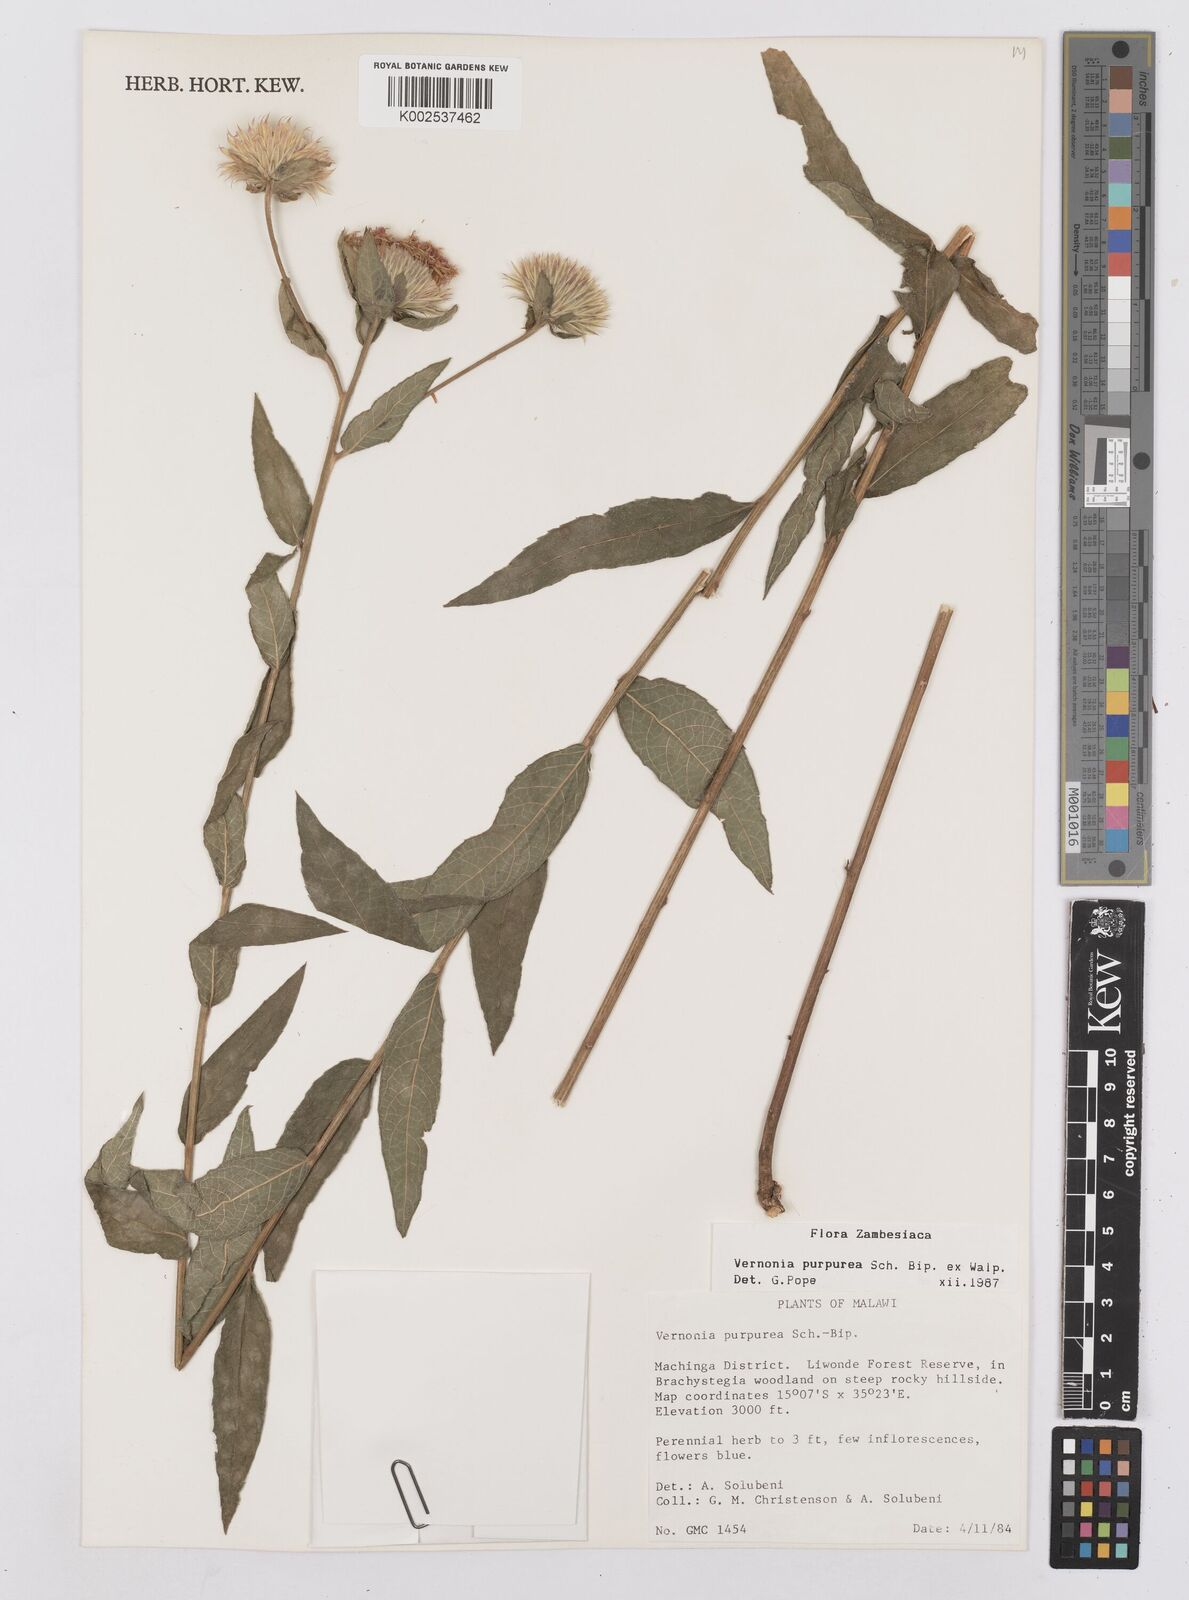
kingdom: Plantae
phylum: Tracheophyta
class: Magnoliopsida
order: Asterales
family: Asteraceae
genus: Nothovernonia
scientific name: Nothovernonia purpurea
